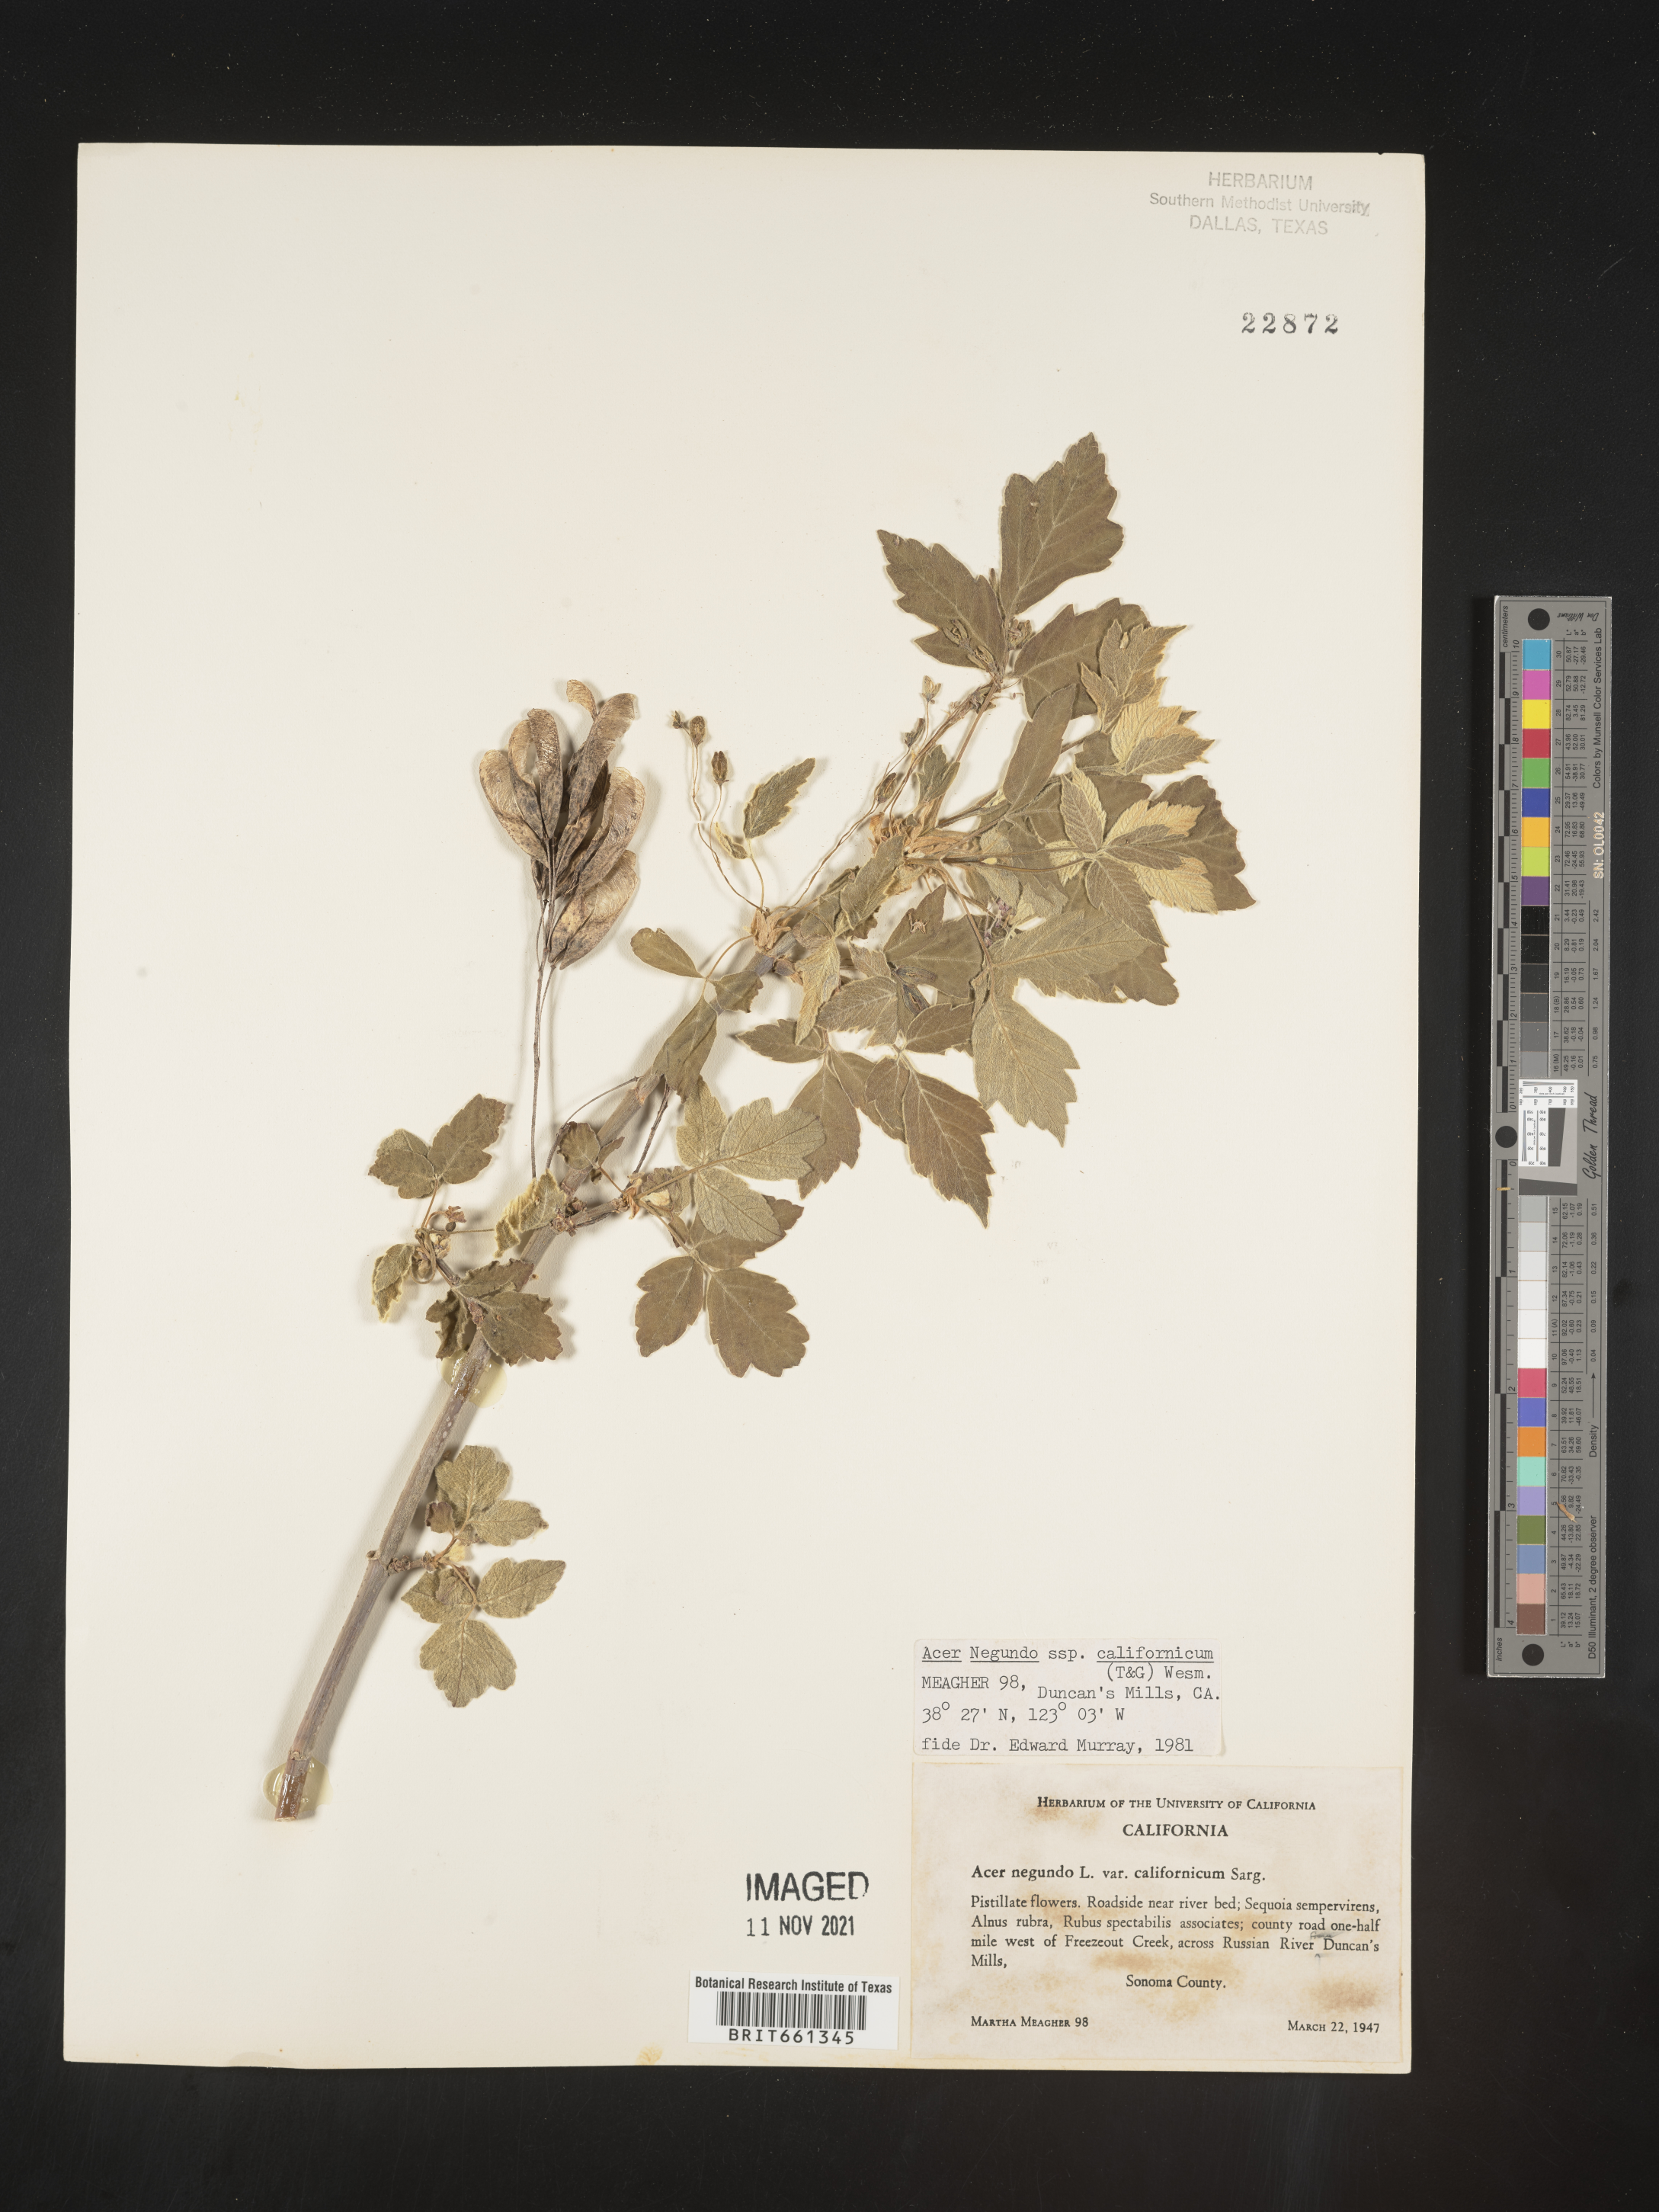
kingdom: Plantae
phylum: Tracheophyta
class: Magnoliopsida
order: Sapindales
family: Sapindaceae
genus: Acer
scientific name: Acer negundo
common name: Ashleaf maple
